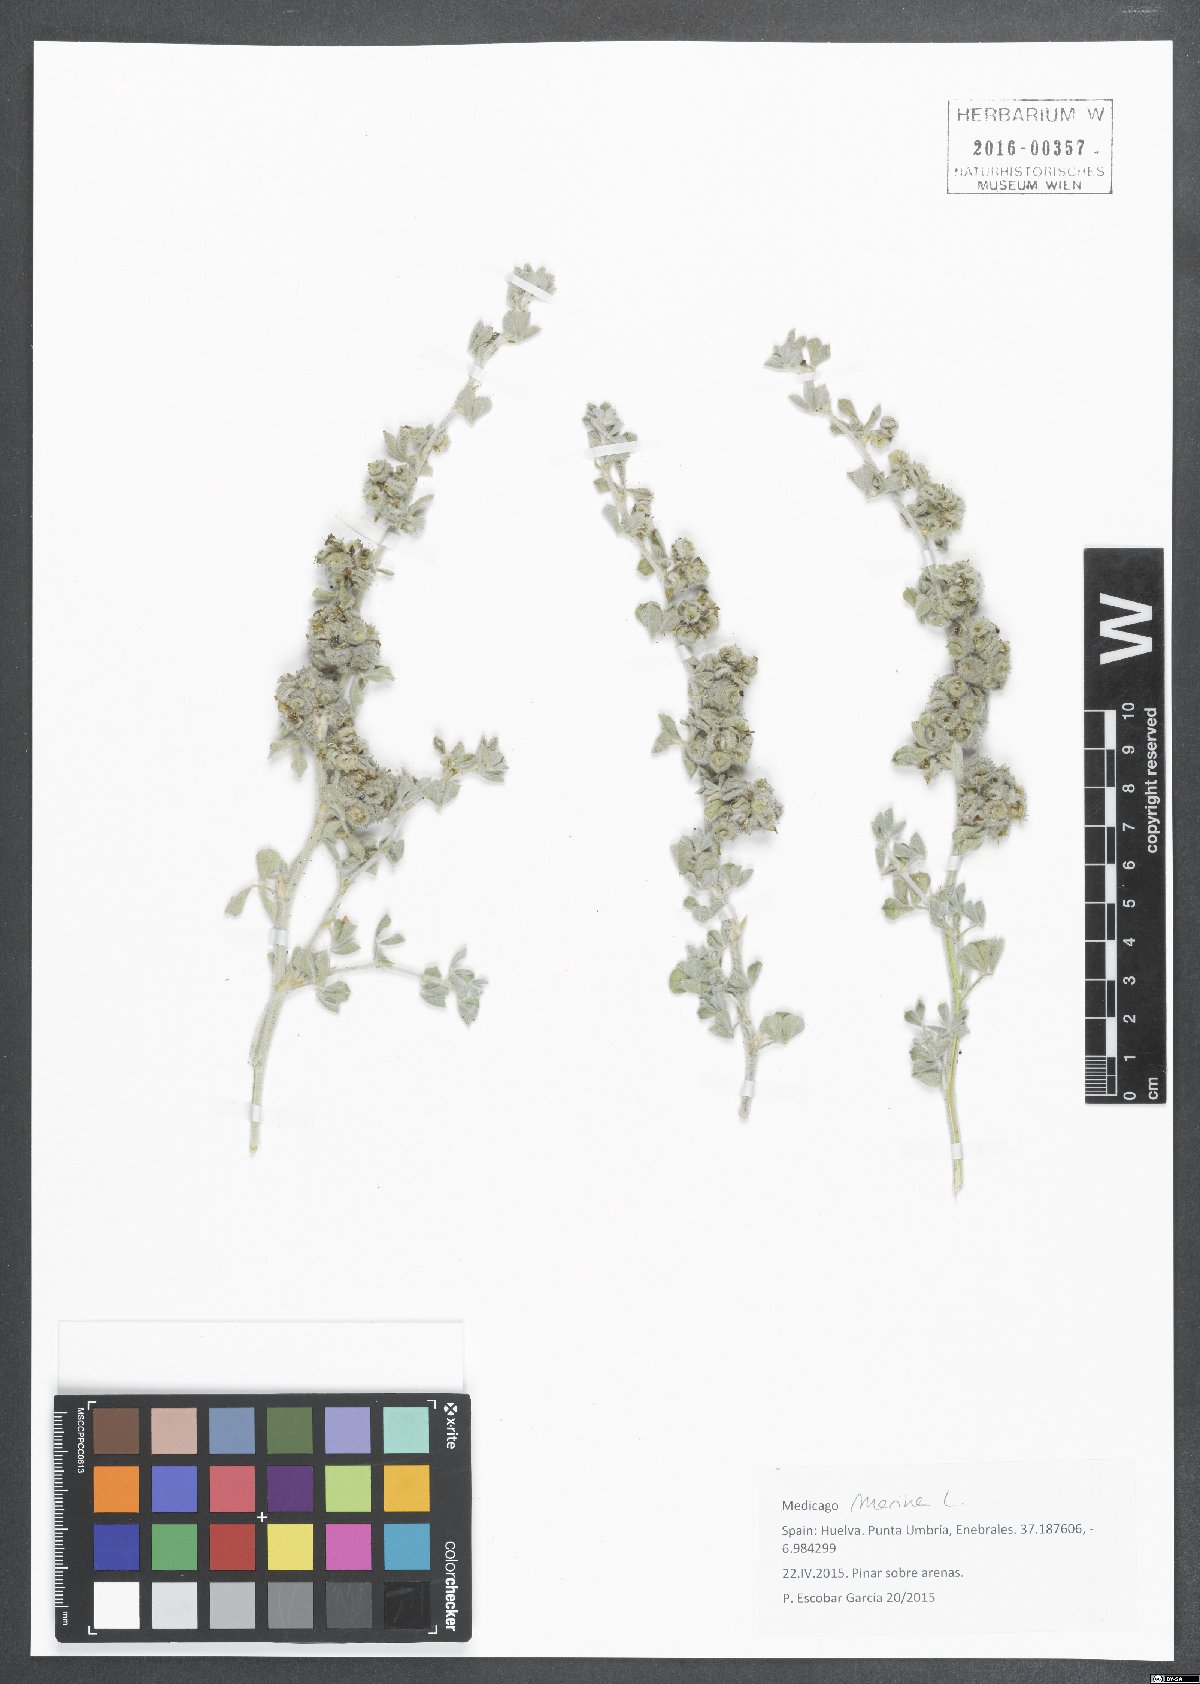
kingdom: Plantae
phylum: Tracheophyta
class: Magnoliopsida
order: Fabales
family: Fabaceae
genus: Medicago
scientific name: Medicago marina
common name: Sea medick
